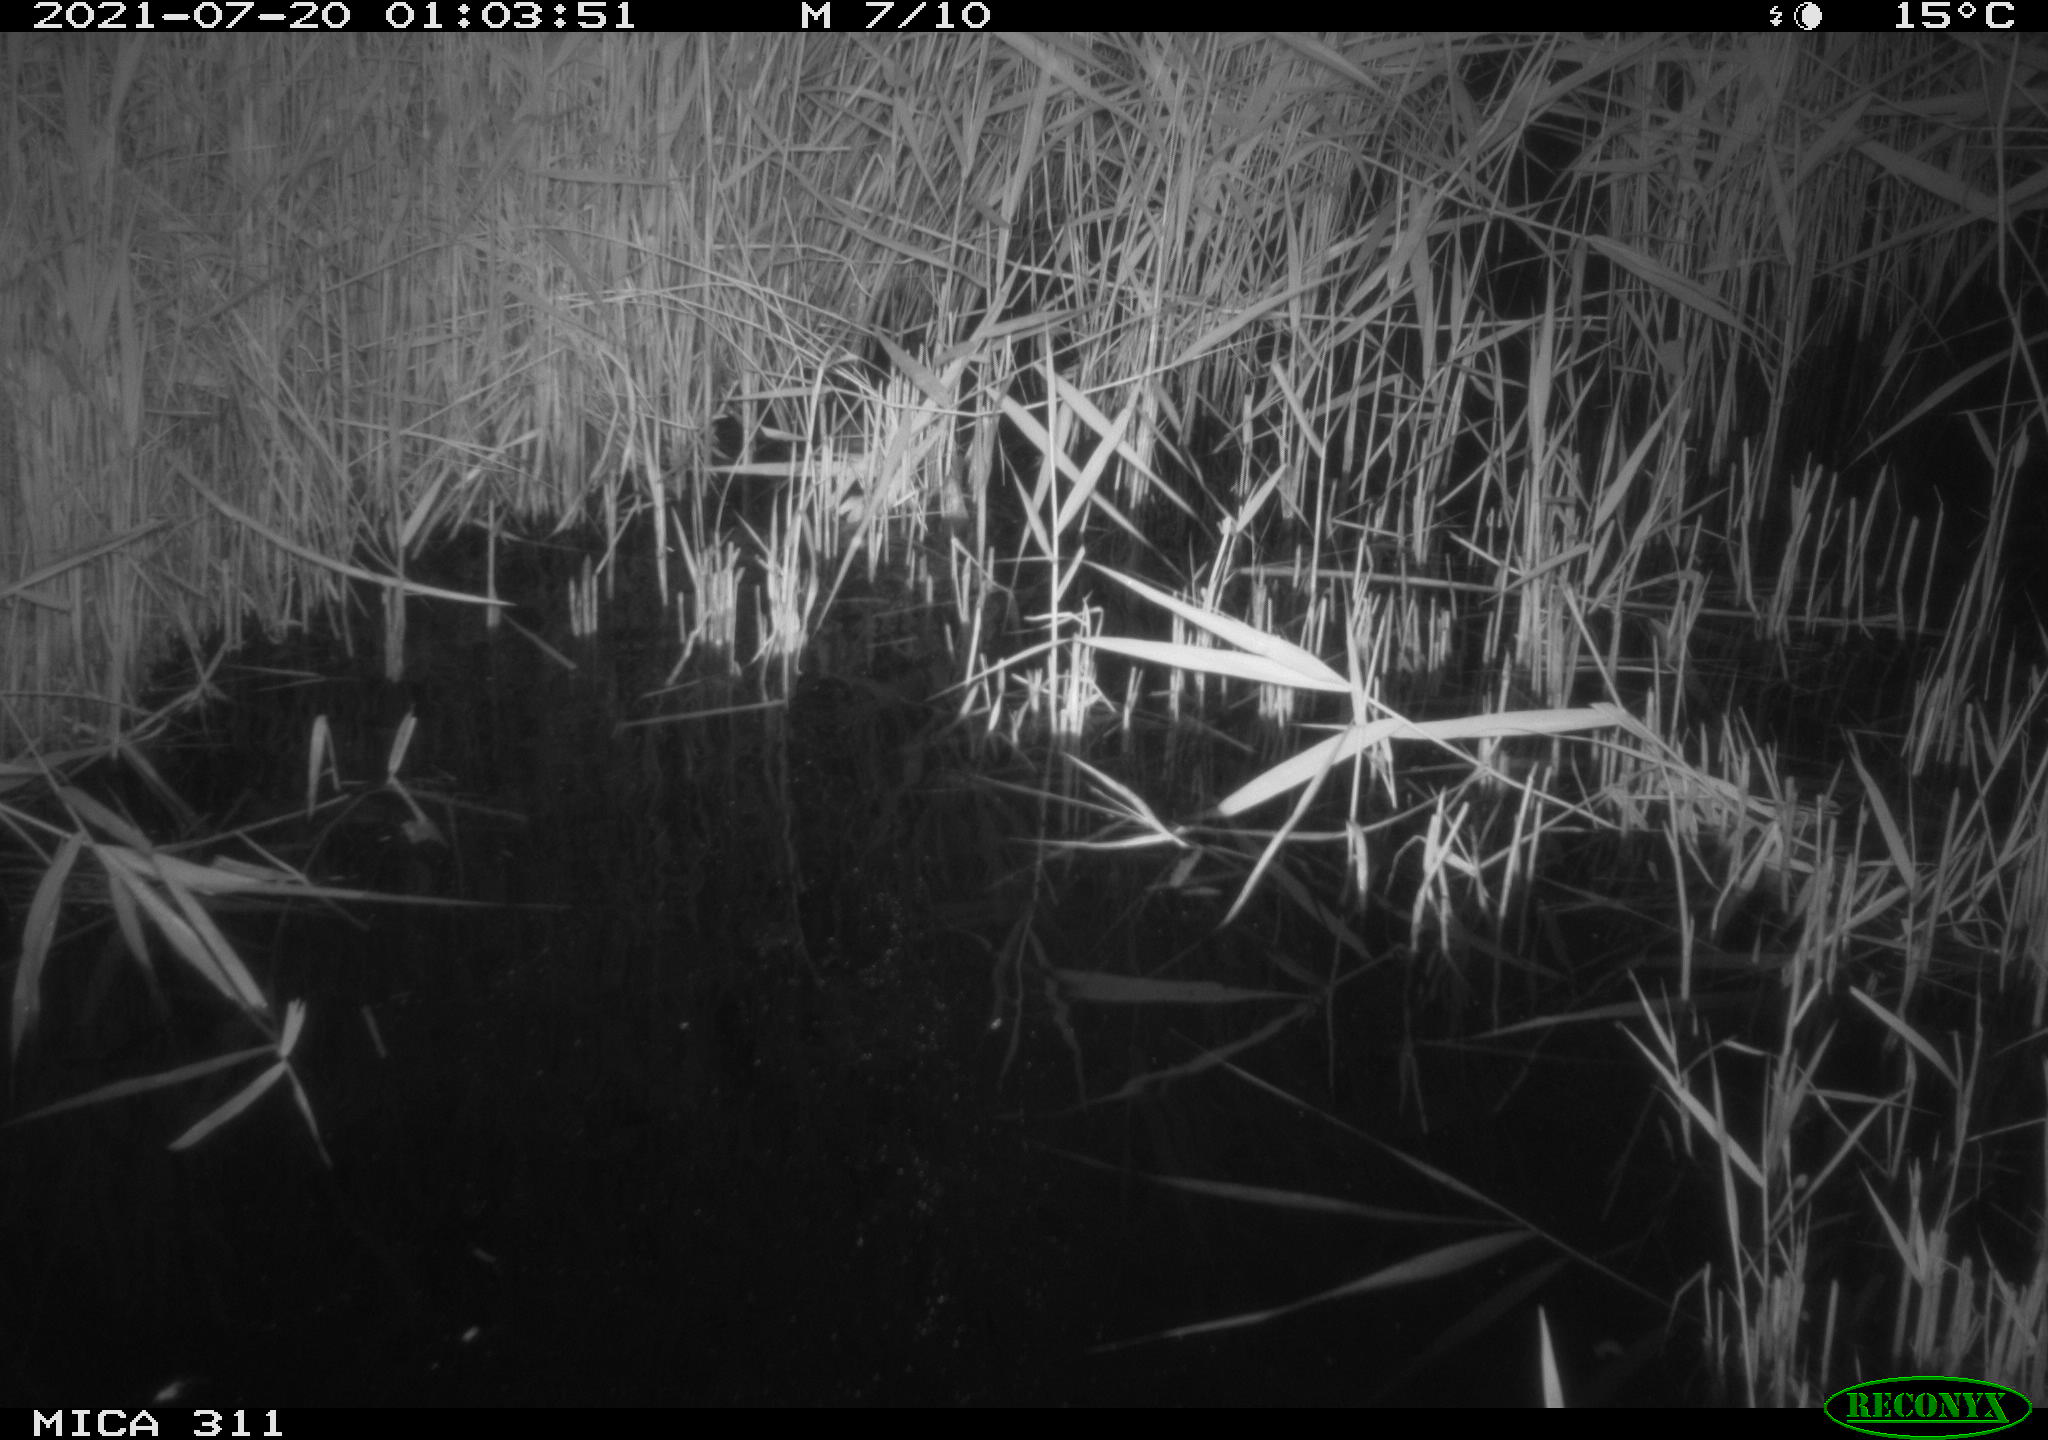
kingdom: Animalia
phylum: Chordata
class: Mammalia
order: Rodentia
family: Muridae
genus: Rattus
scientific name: Rattus norvegicus
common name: Brown rat
